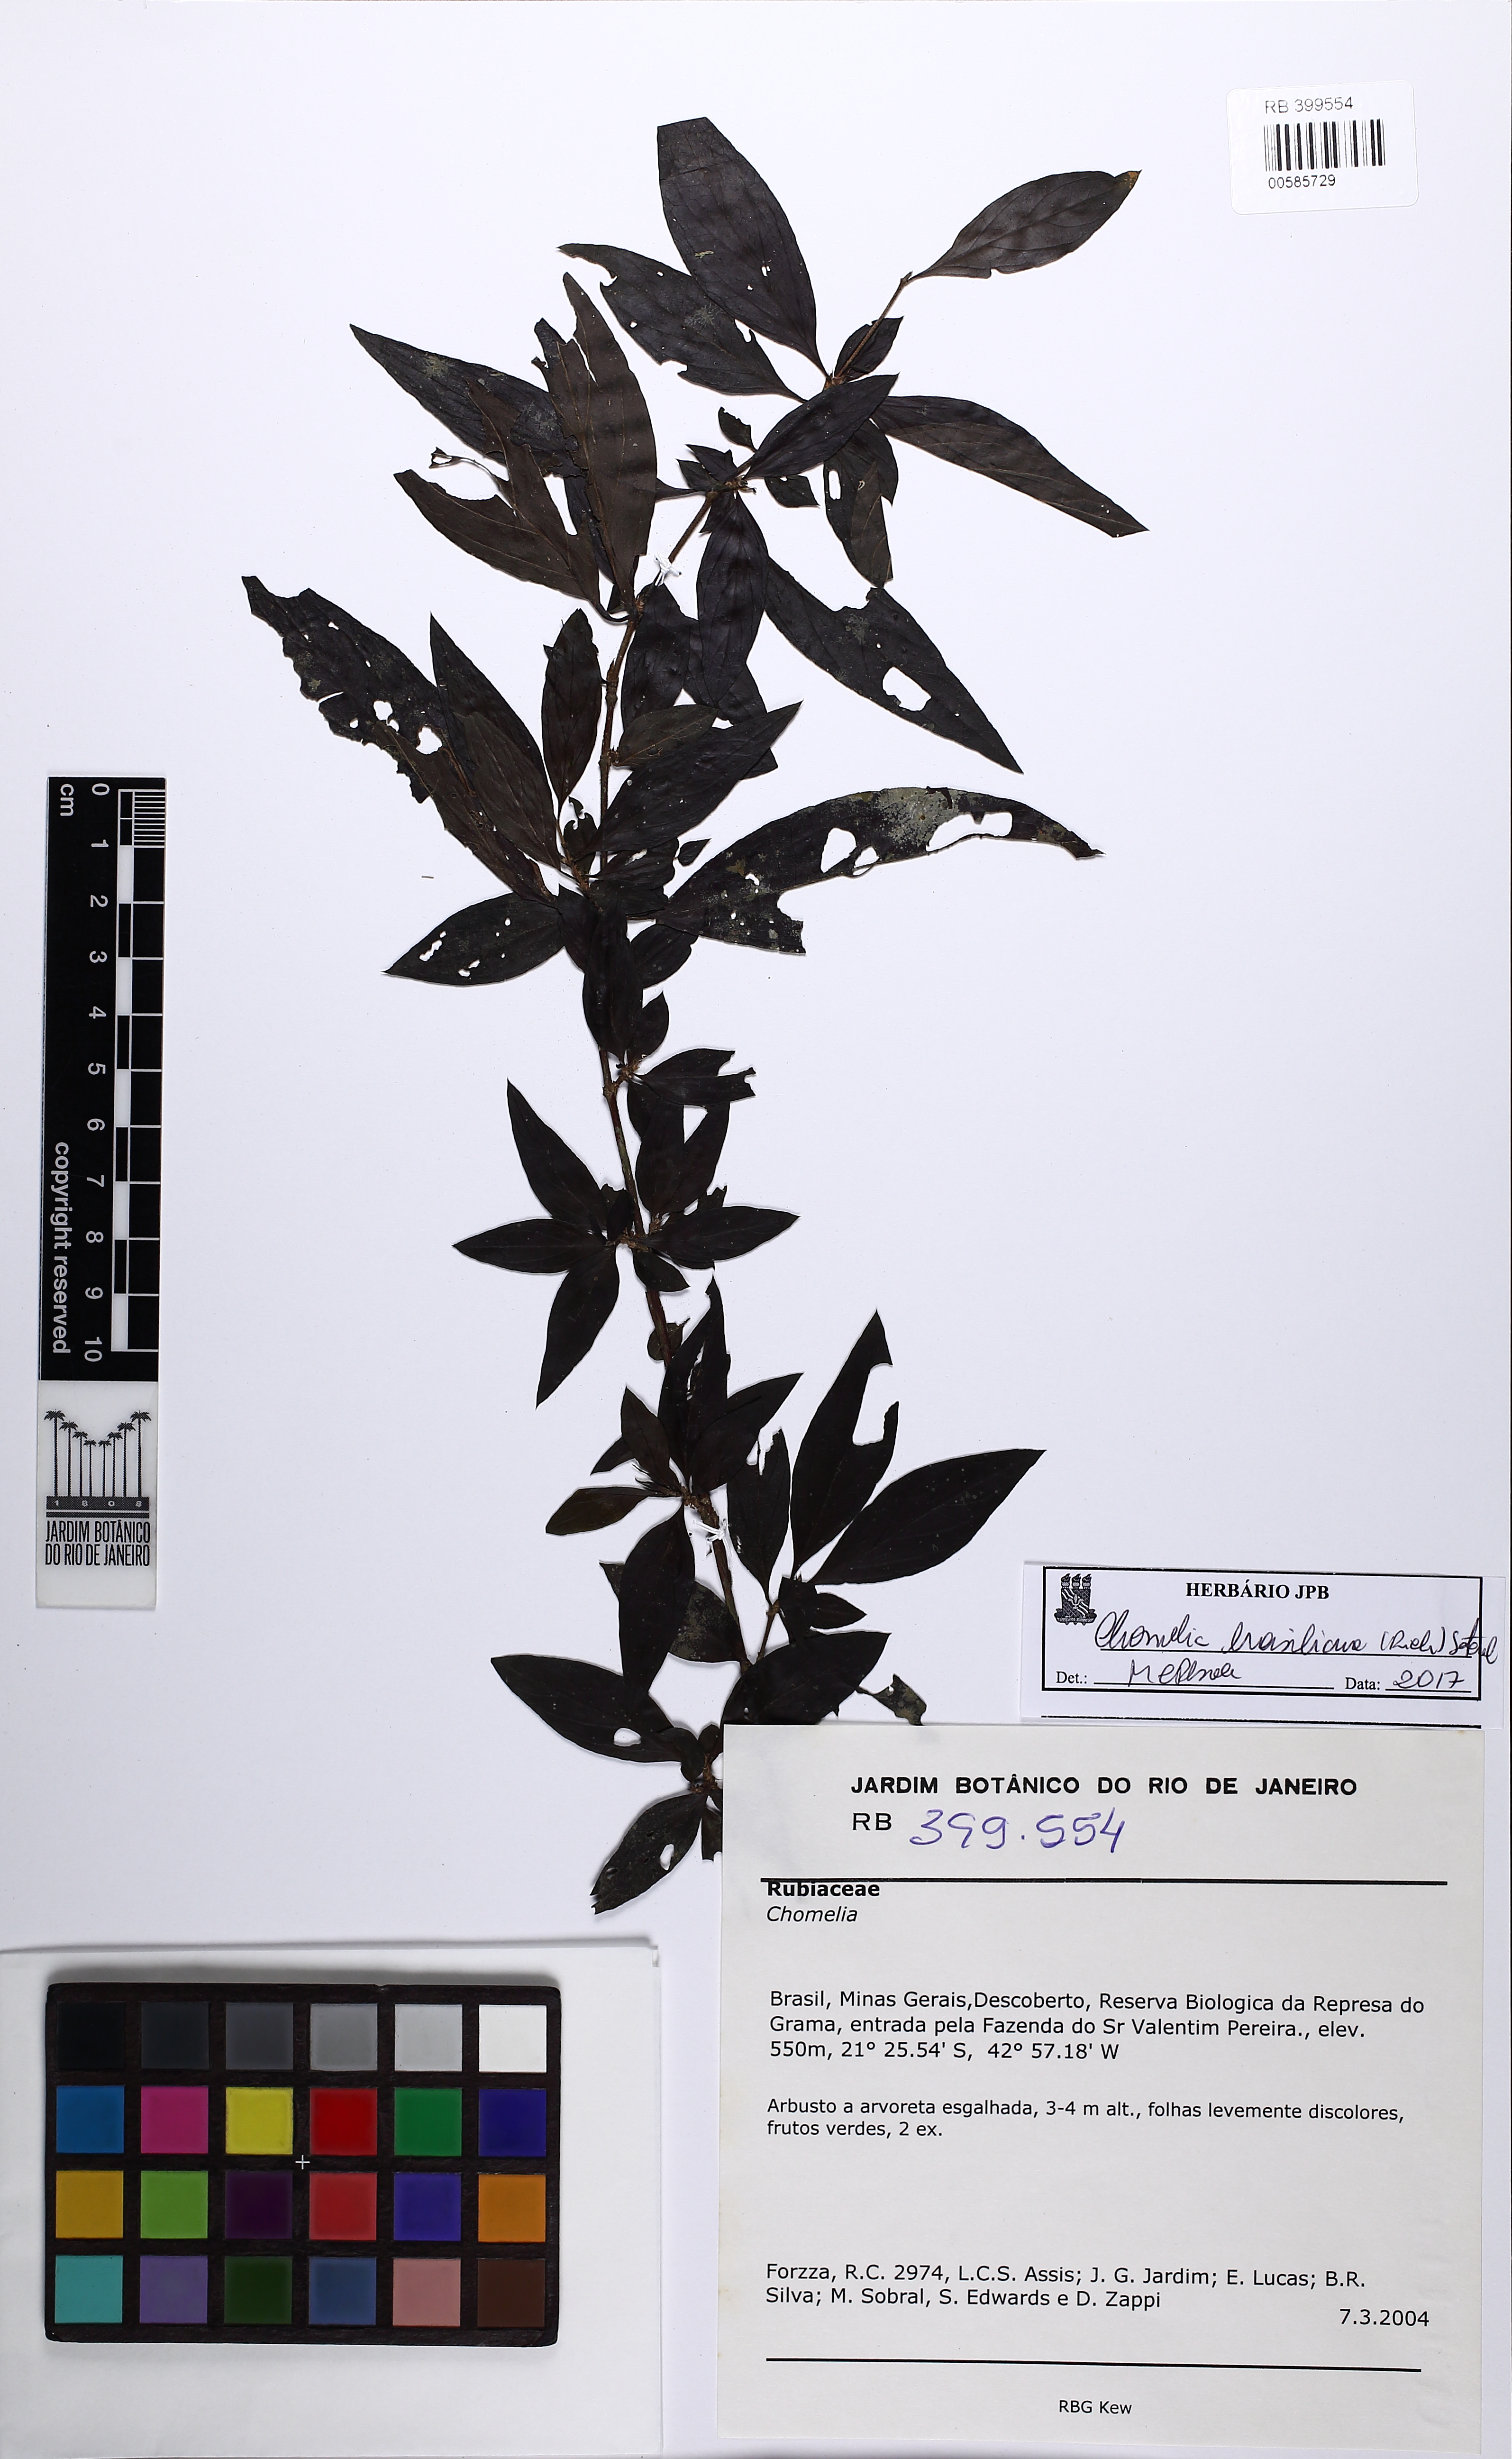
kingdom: Plantae
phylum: Tracheophyta
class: Magnoliopsida
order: Gentianales
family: Rubiaceae
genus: Chomelia
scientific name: Chomelia brasiliana
